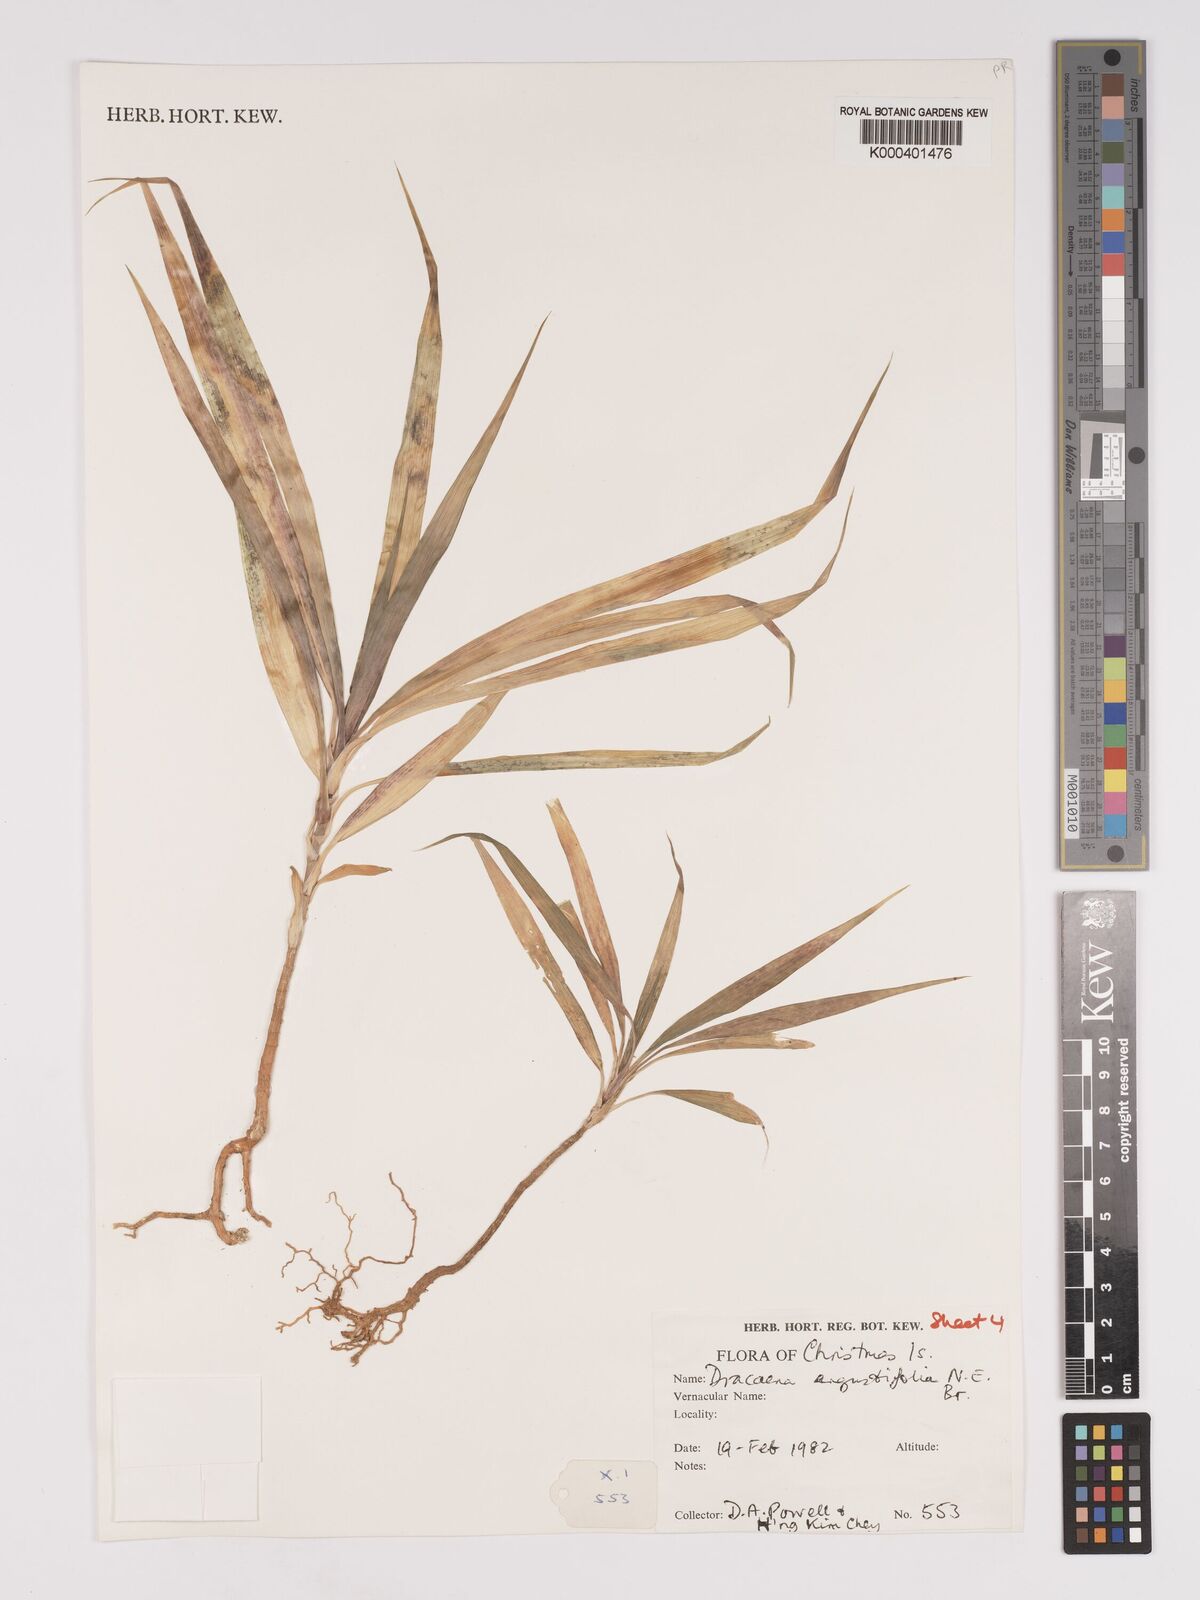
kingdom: Plantae
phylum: Tracheophyta
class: Liliopsida
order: Asparagales
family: Asparagaceae
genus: Dracaena
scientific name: Dracaena angustifolia
